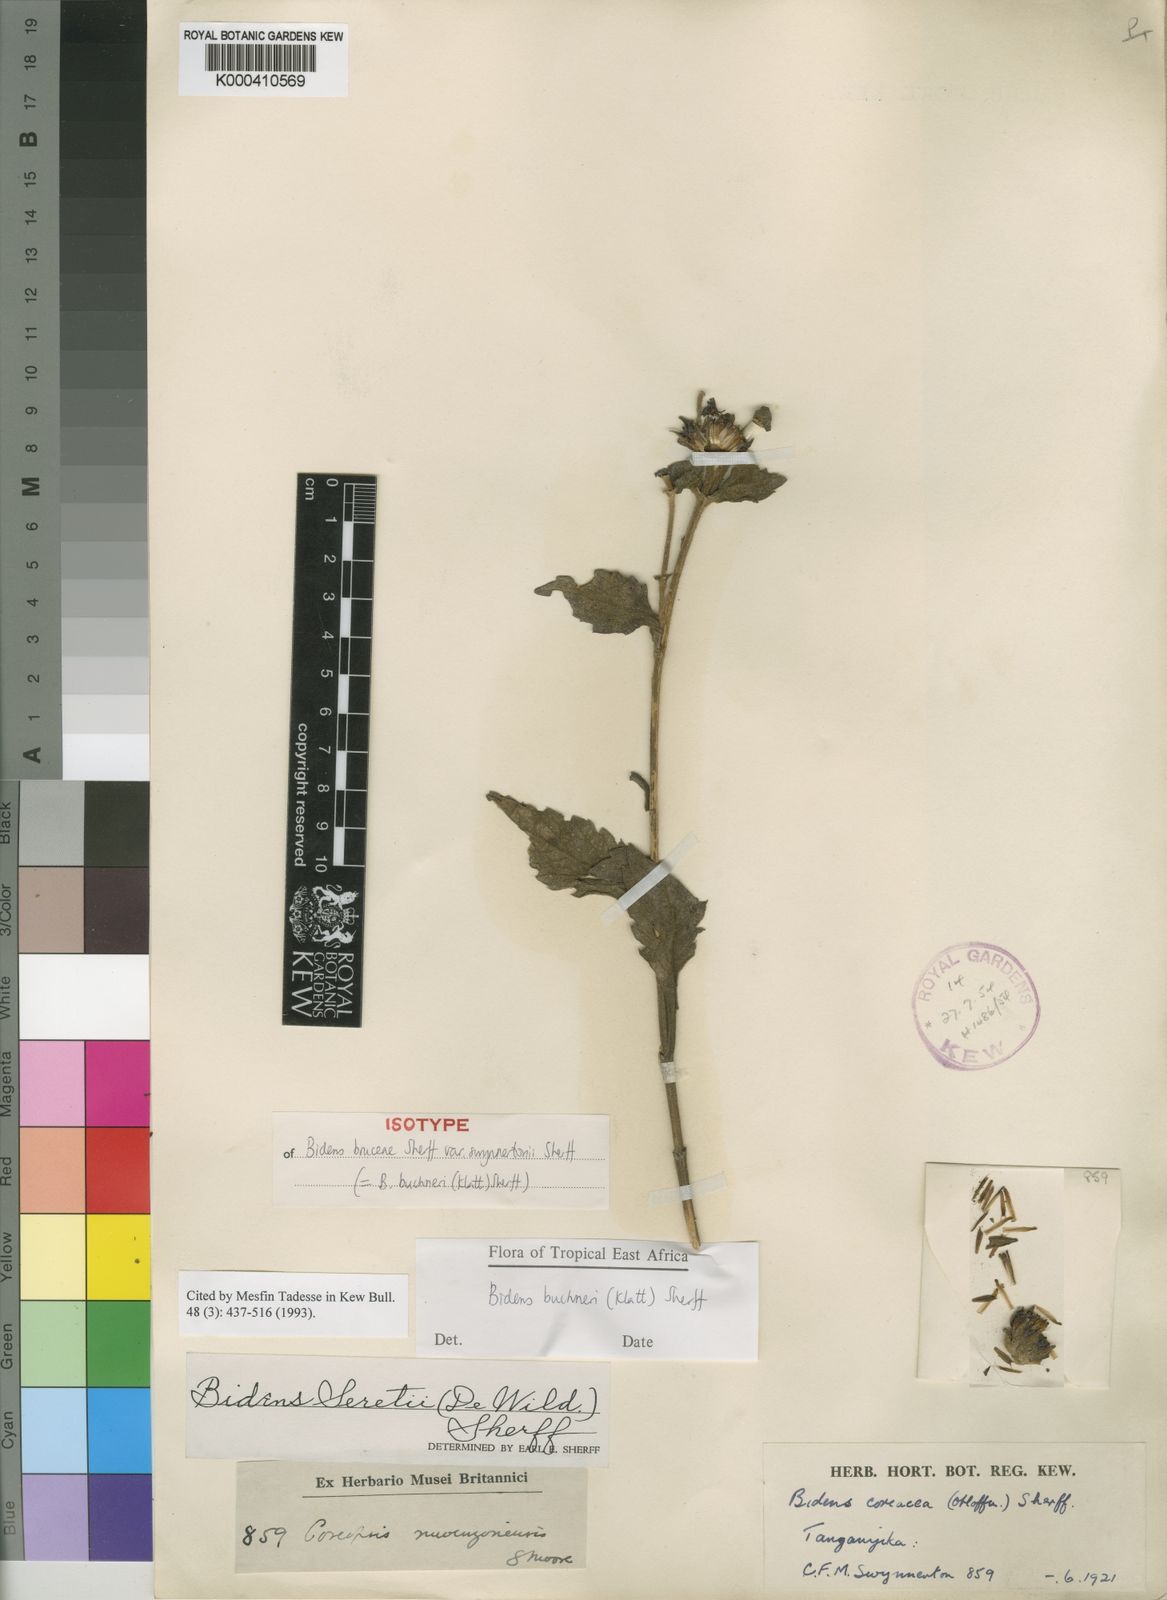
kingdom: Plantae
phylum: Tracheophyta
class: Magnoliopsida
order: Asterales
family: Asteraceae
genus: Bidens
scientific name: Bidens buchneri
